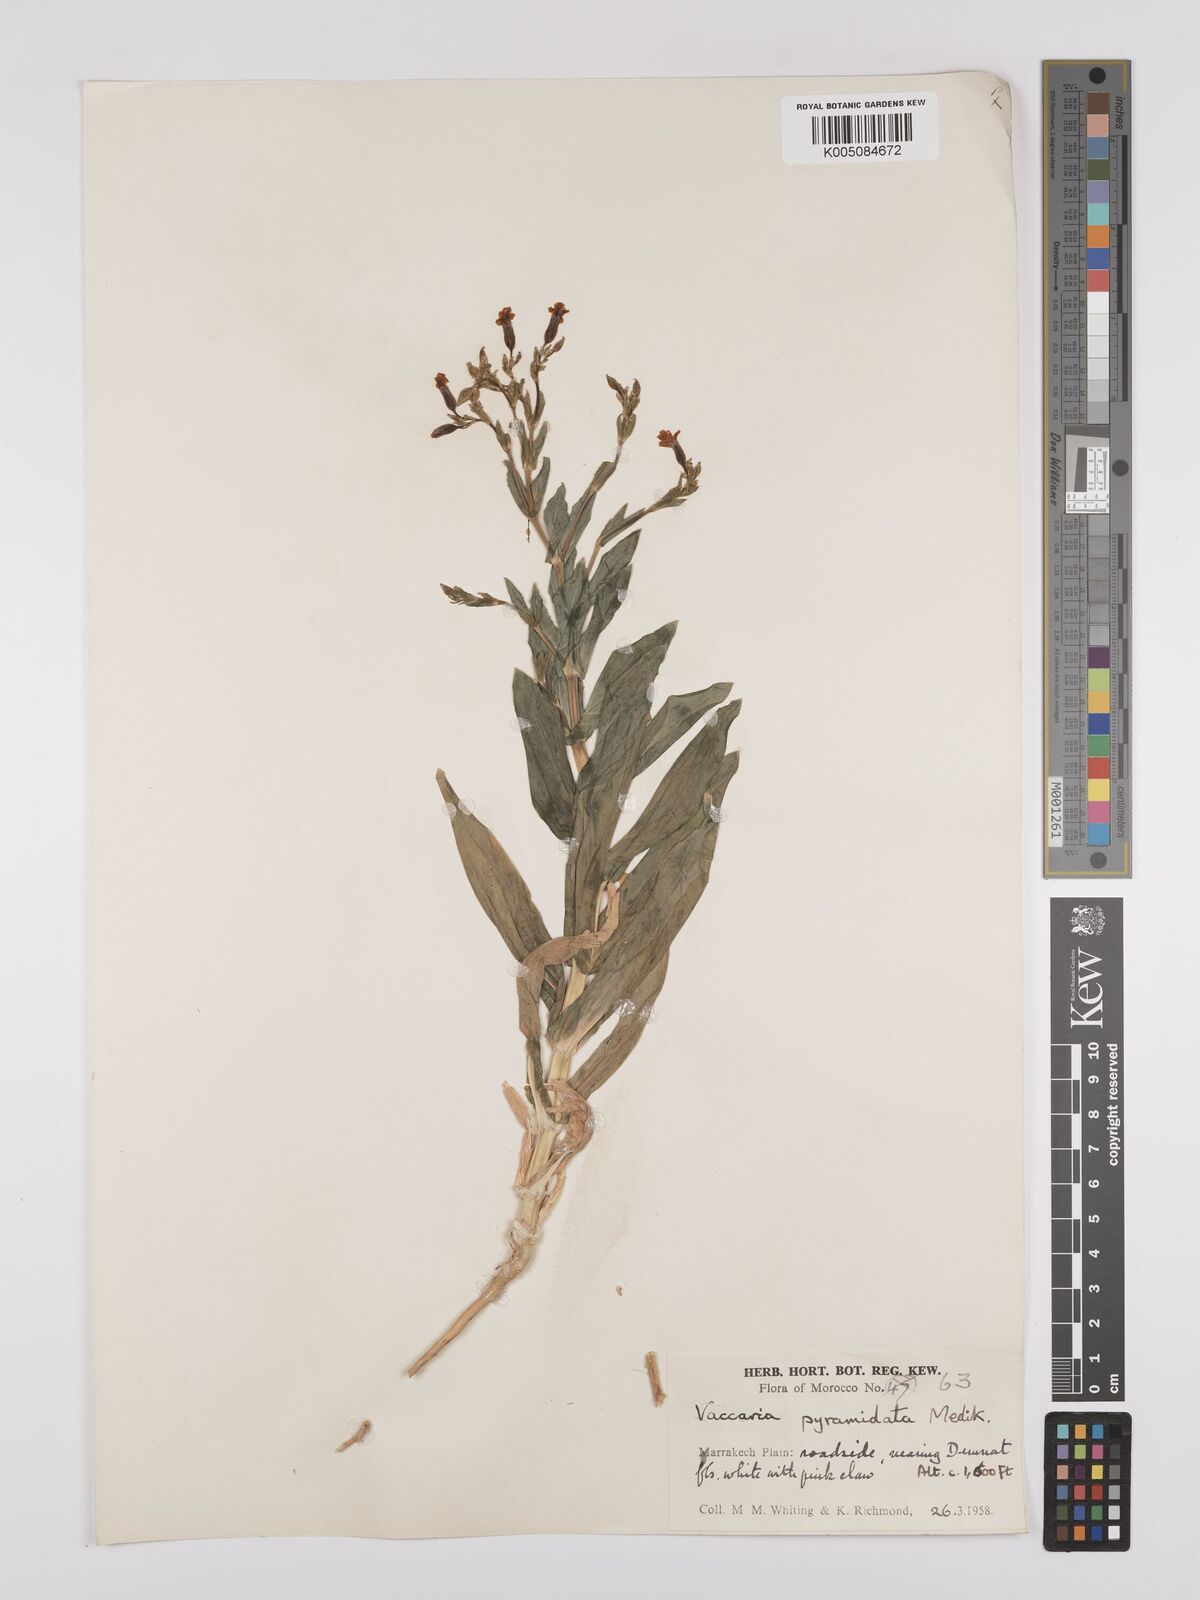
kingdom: Plantae
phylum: Tracheophyta
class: Magnoliopsida
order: Caryophyllales
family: Caryophyllaceae
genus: Gypsophila
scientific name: Gypsophila vaccaria
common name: Cow soapwort
